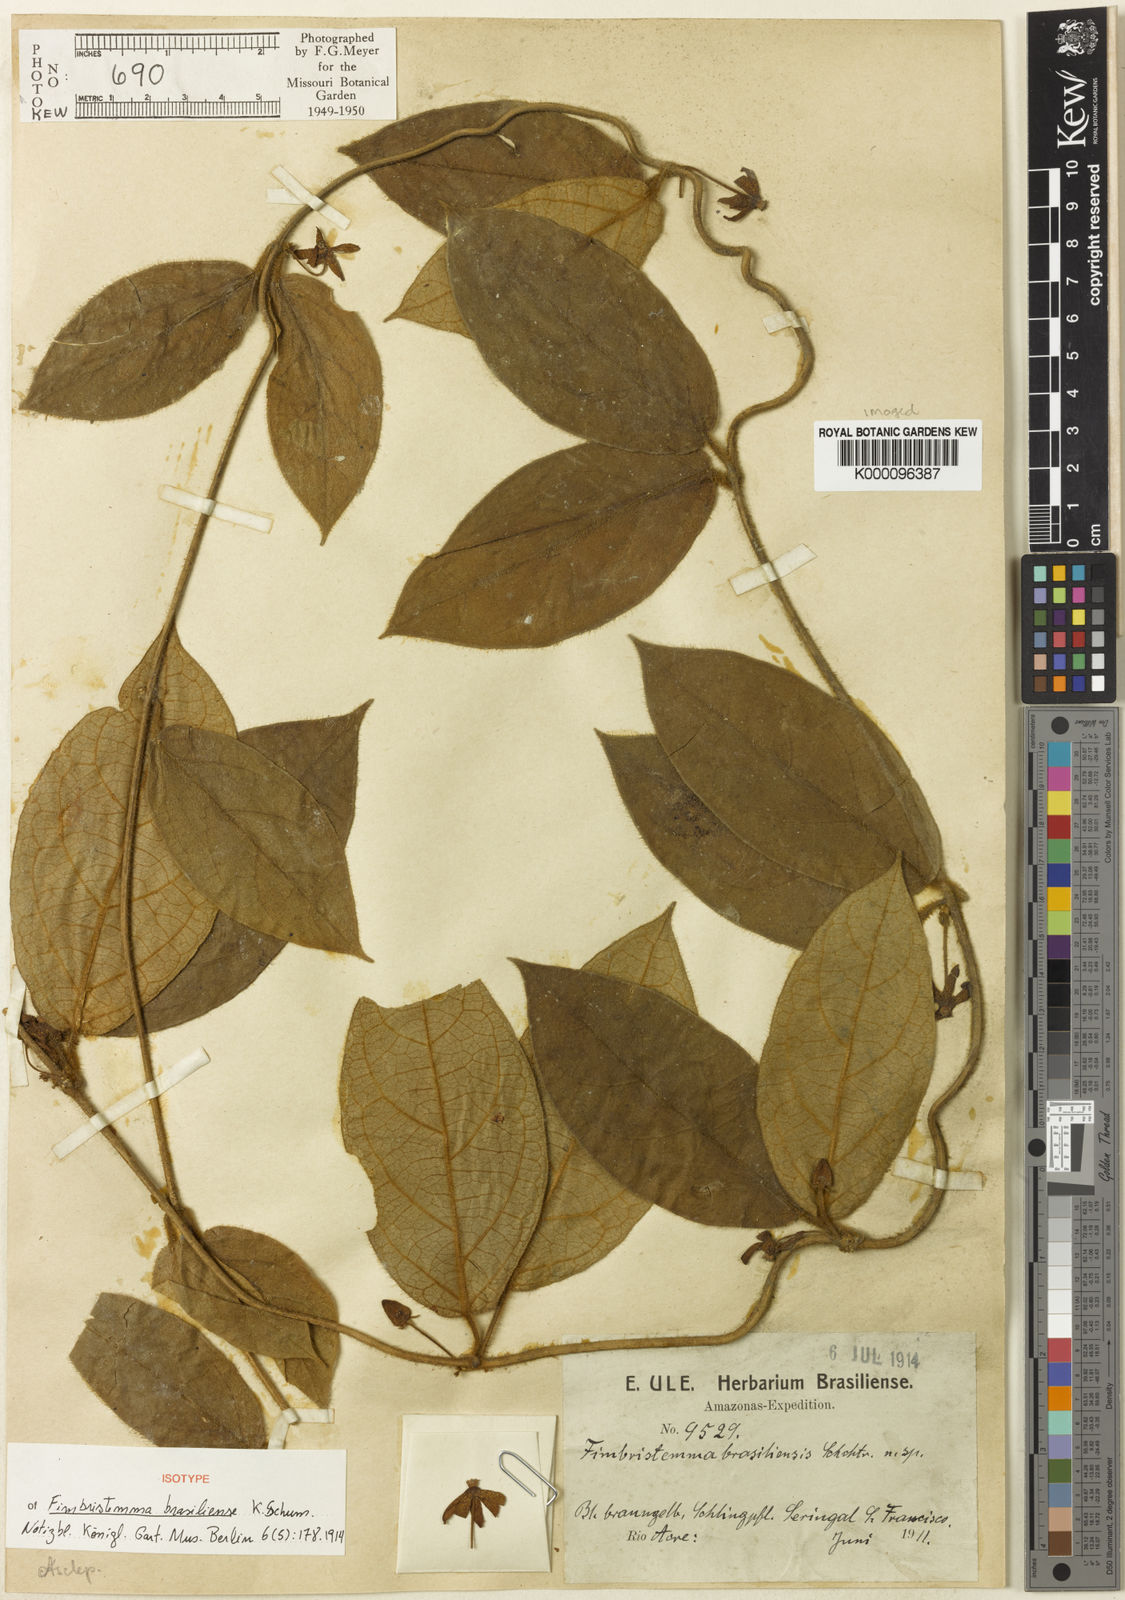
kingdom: Plantae
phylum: Tracheophyta
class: Magnoliopsida
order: Gentianales
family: Apocynaceae
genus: Pseudolachnostoma
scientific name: Pseudolachnostoma brasiliense
